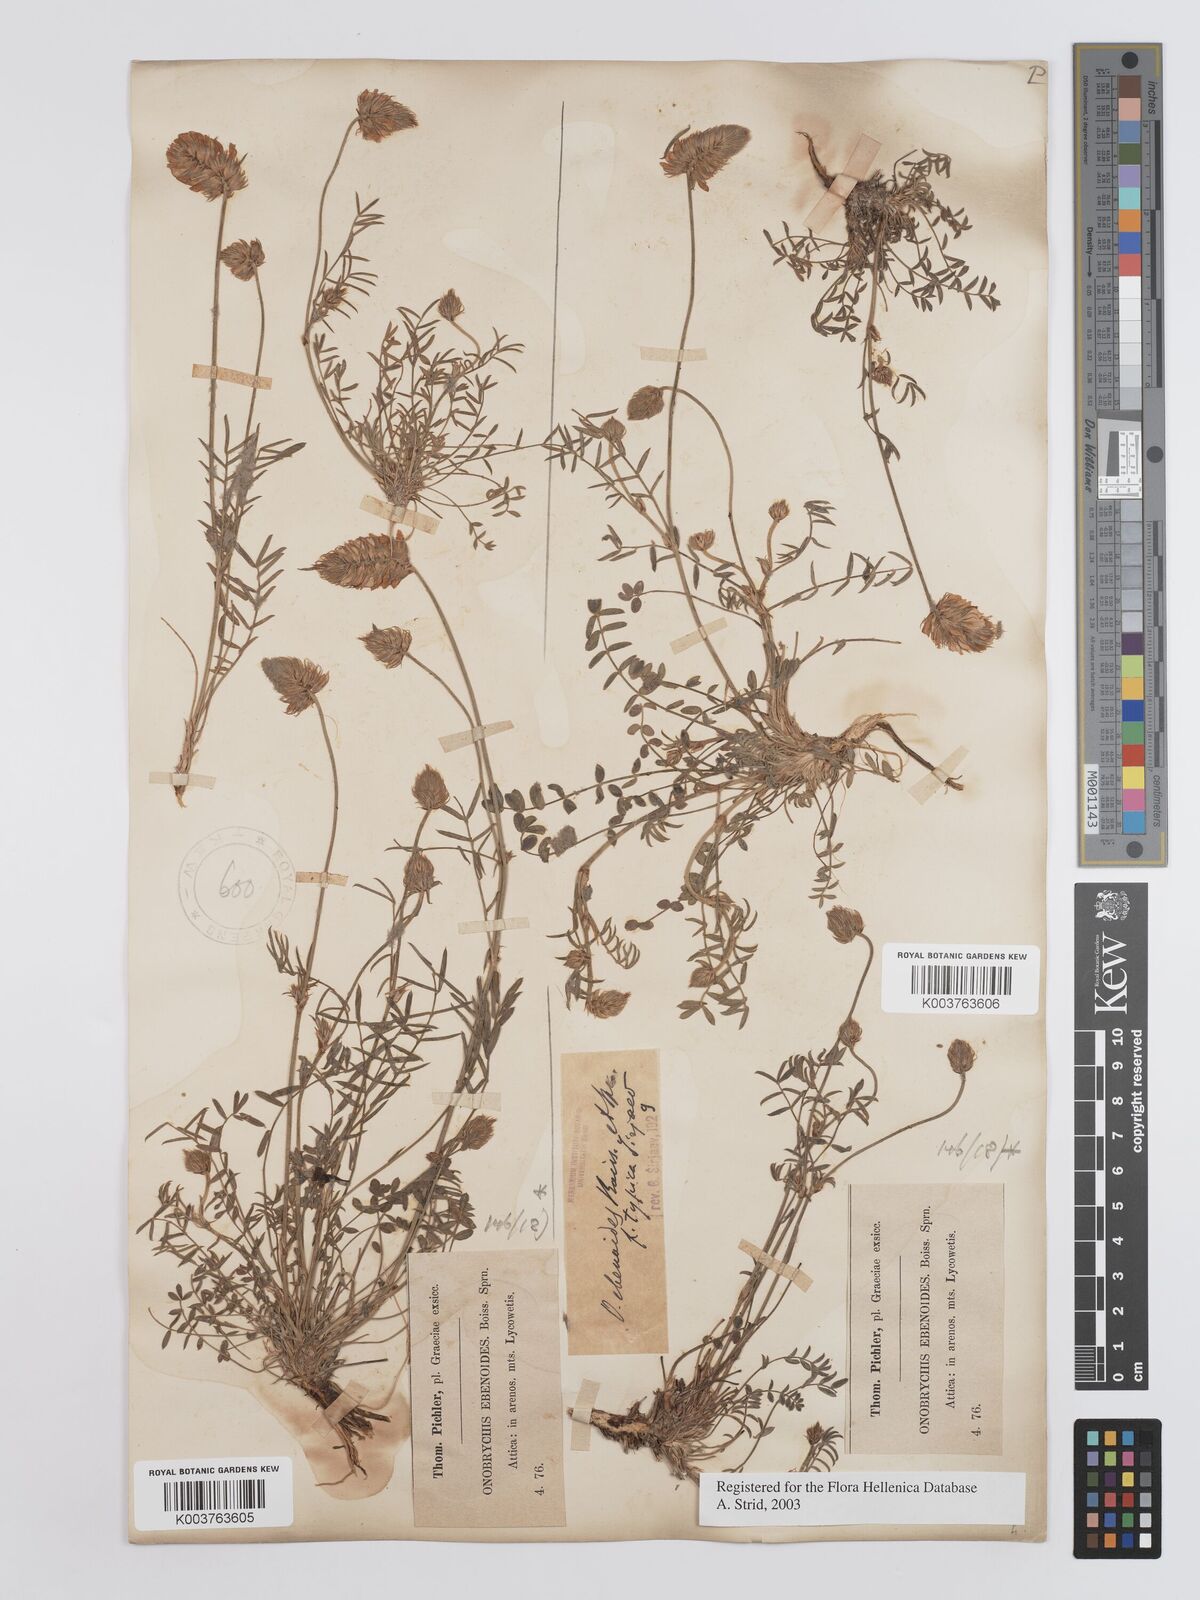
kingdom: Plantae
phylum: Tracheophyta
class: Magnoliopsida
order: Fabales
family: Fabaceae
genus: Onobrychis
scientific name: Onobrychis ebenoides
